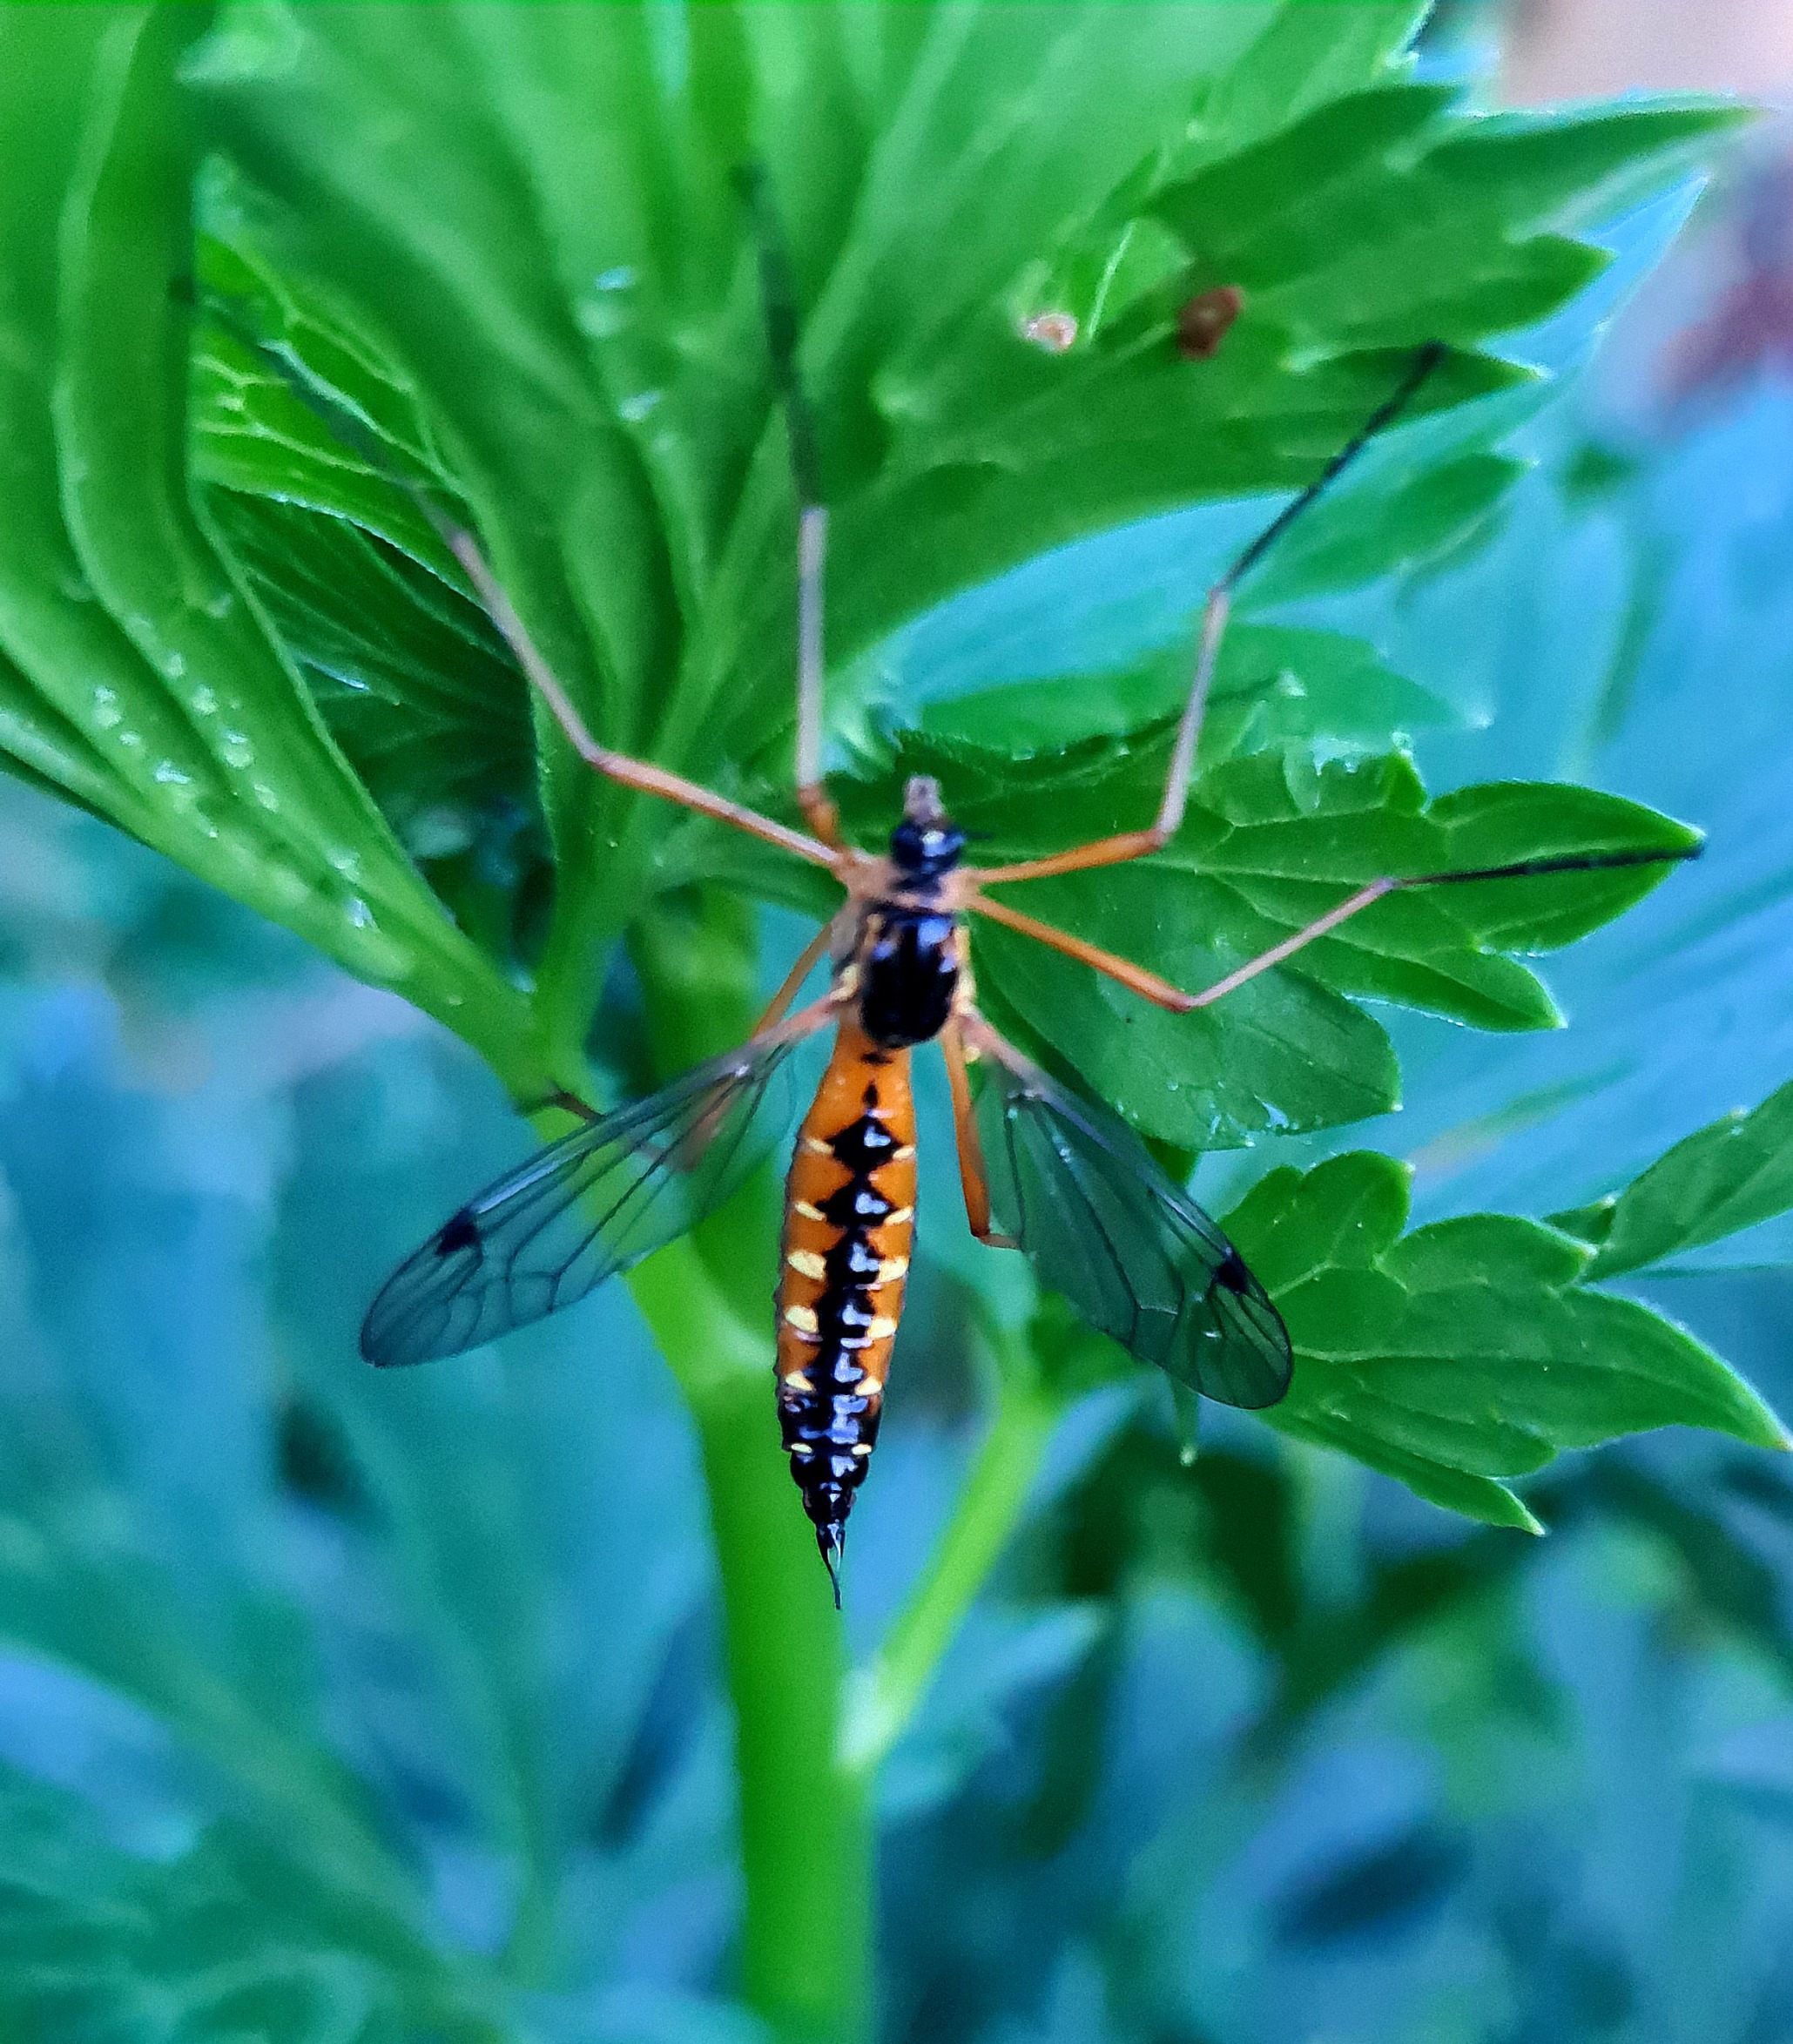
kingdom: Animalia
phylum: Arthropoda
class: Insecta
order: Diptera
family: Tipulidae
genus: Ctenophora
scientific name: Ctenophora pectinicornis
